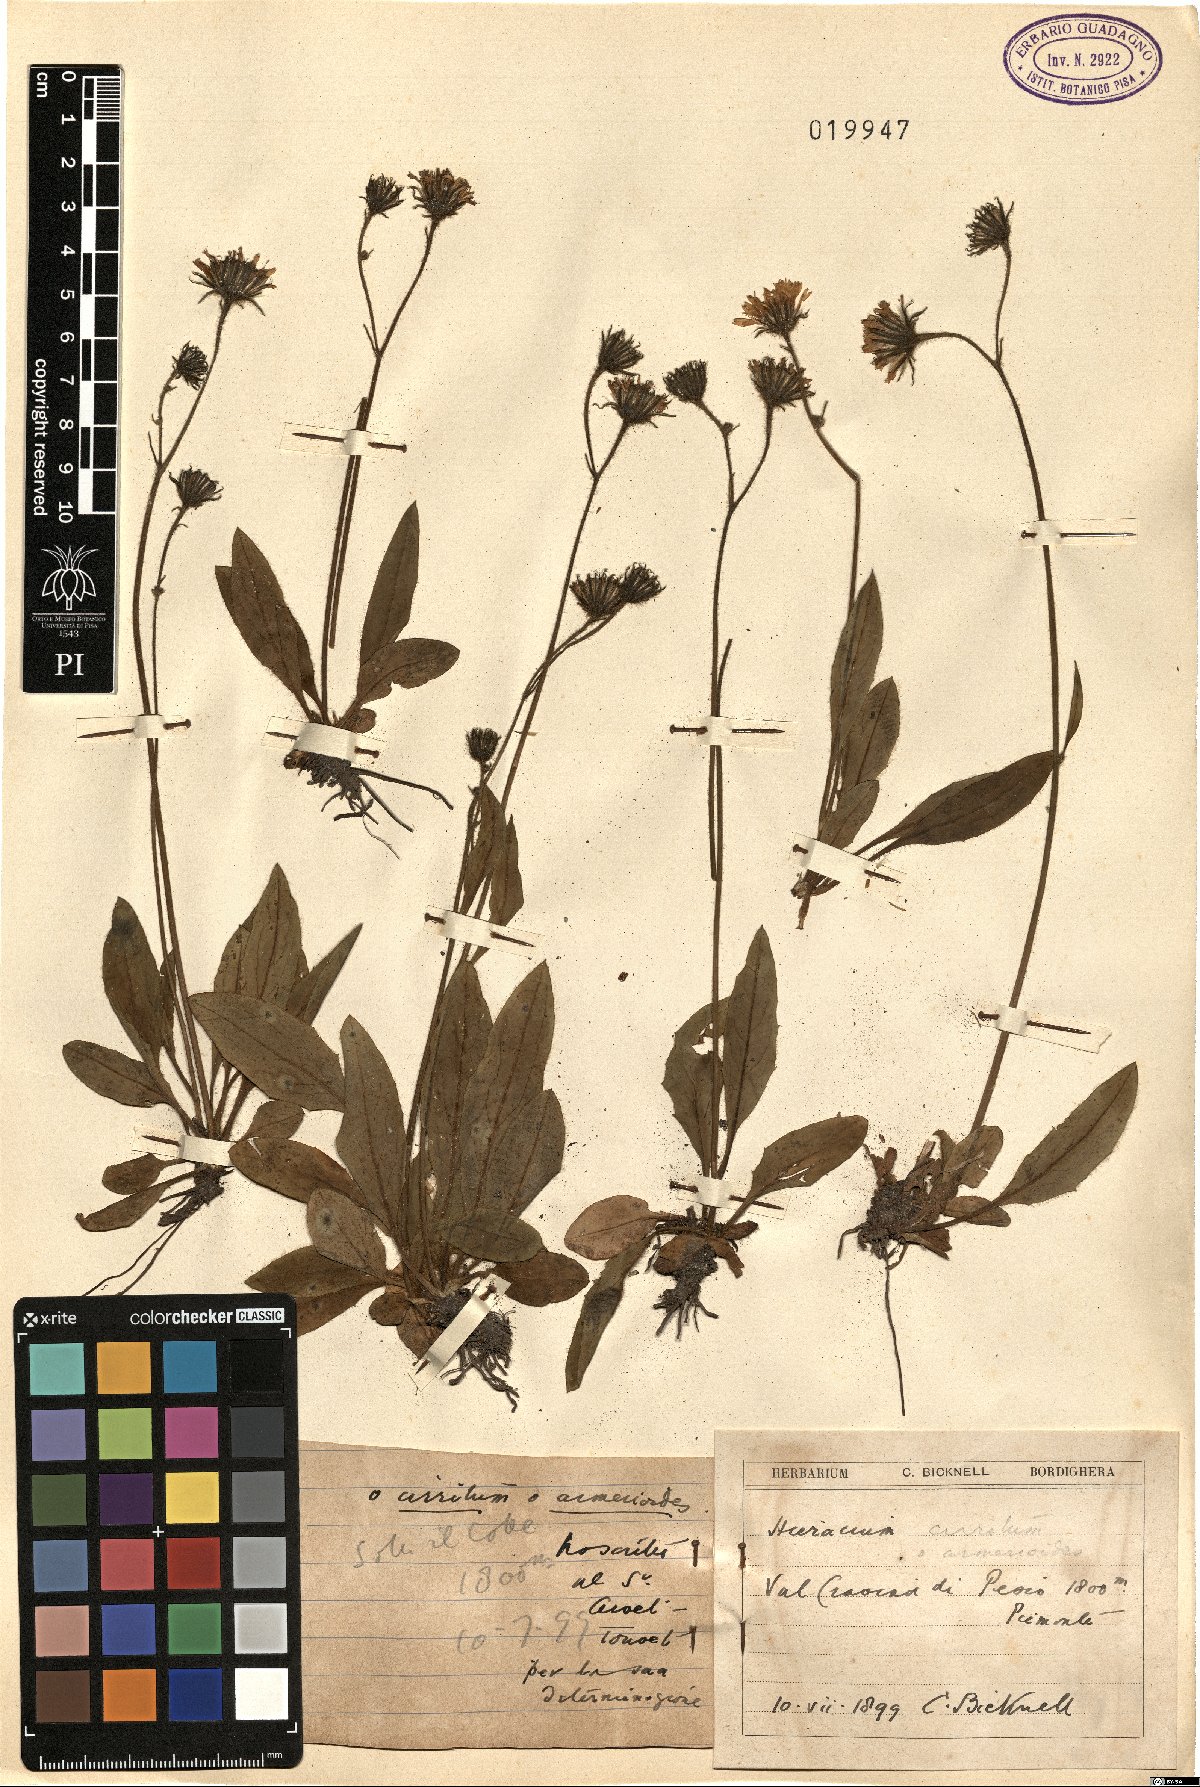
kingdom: Plantae
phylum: Tracheophyta
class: Magnoliopsida
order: Asterales
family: Asteraceae
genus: Hieracium
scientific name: Hieracium cirritum
